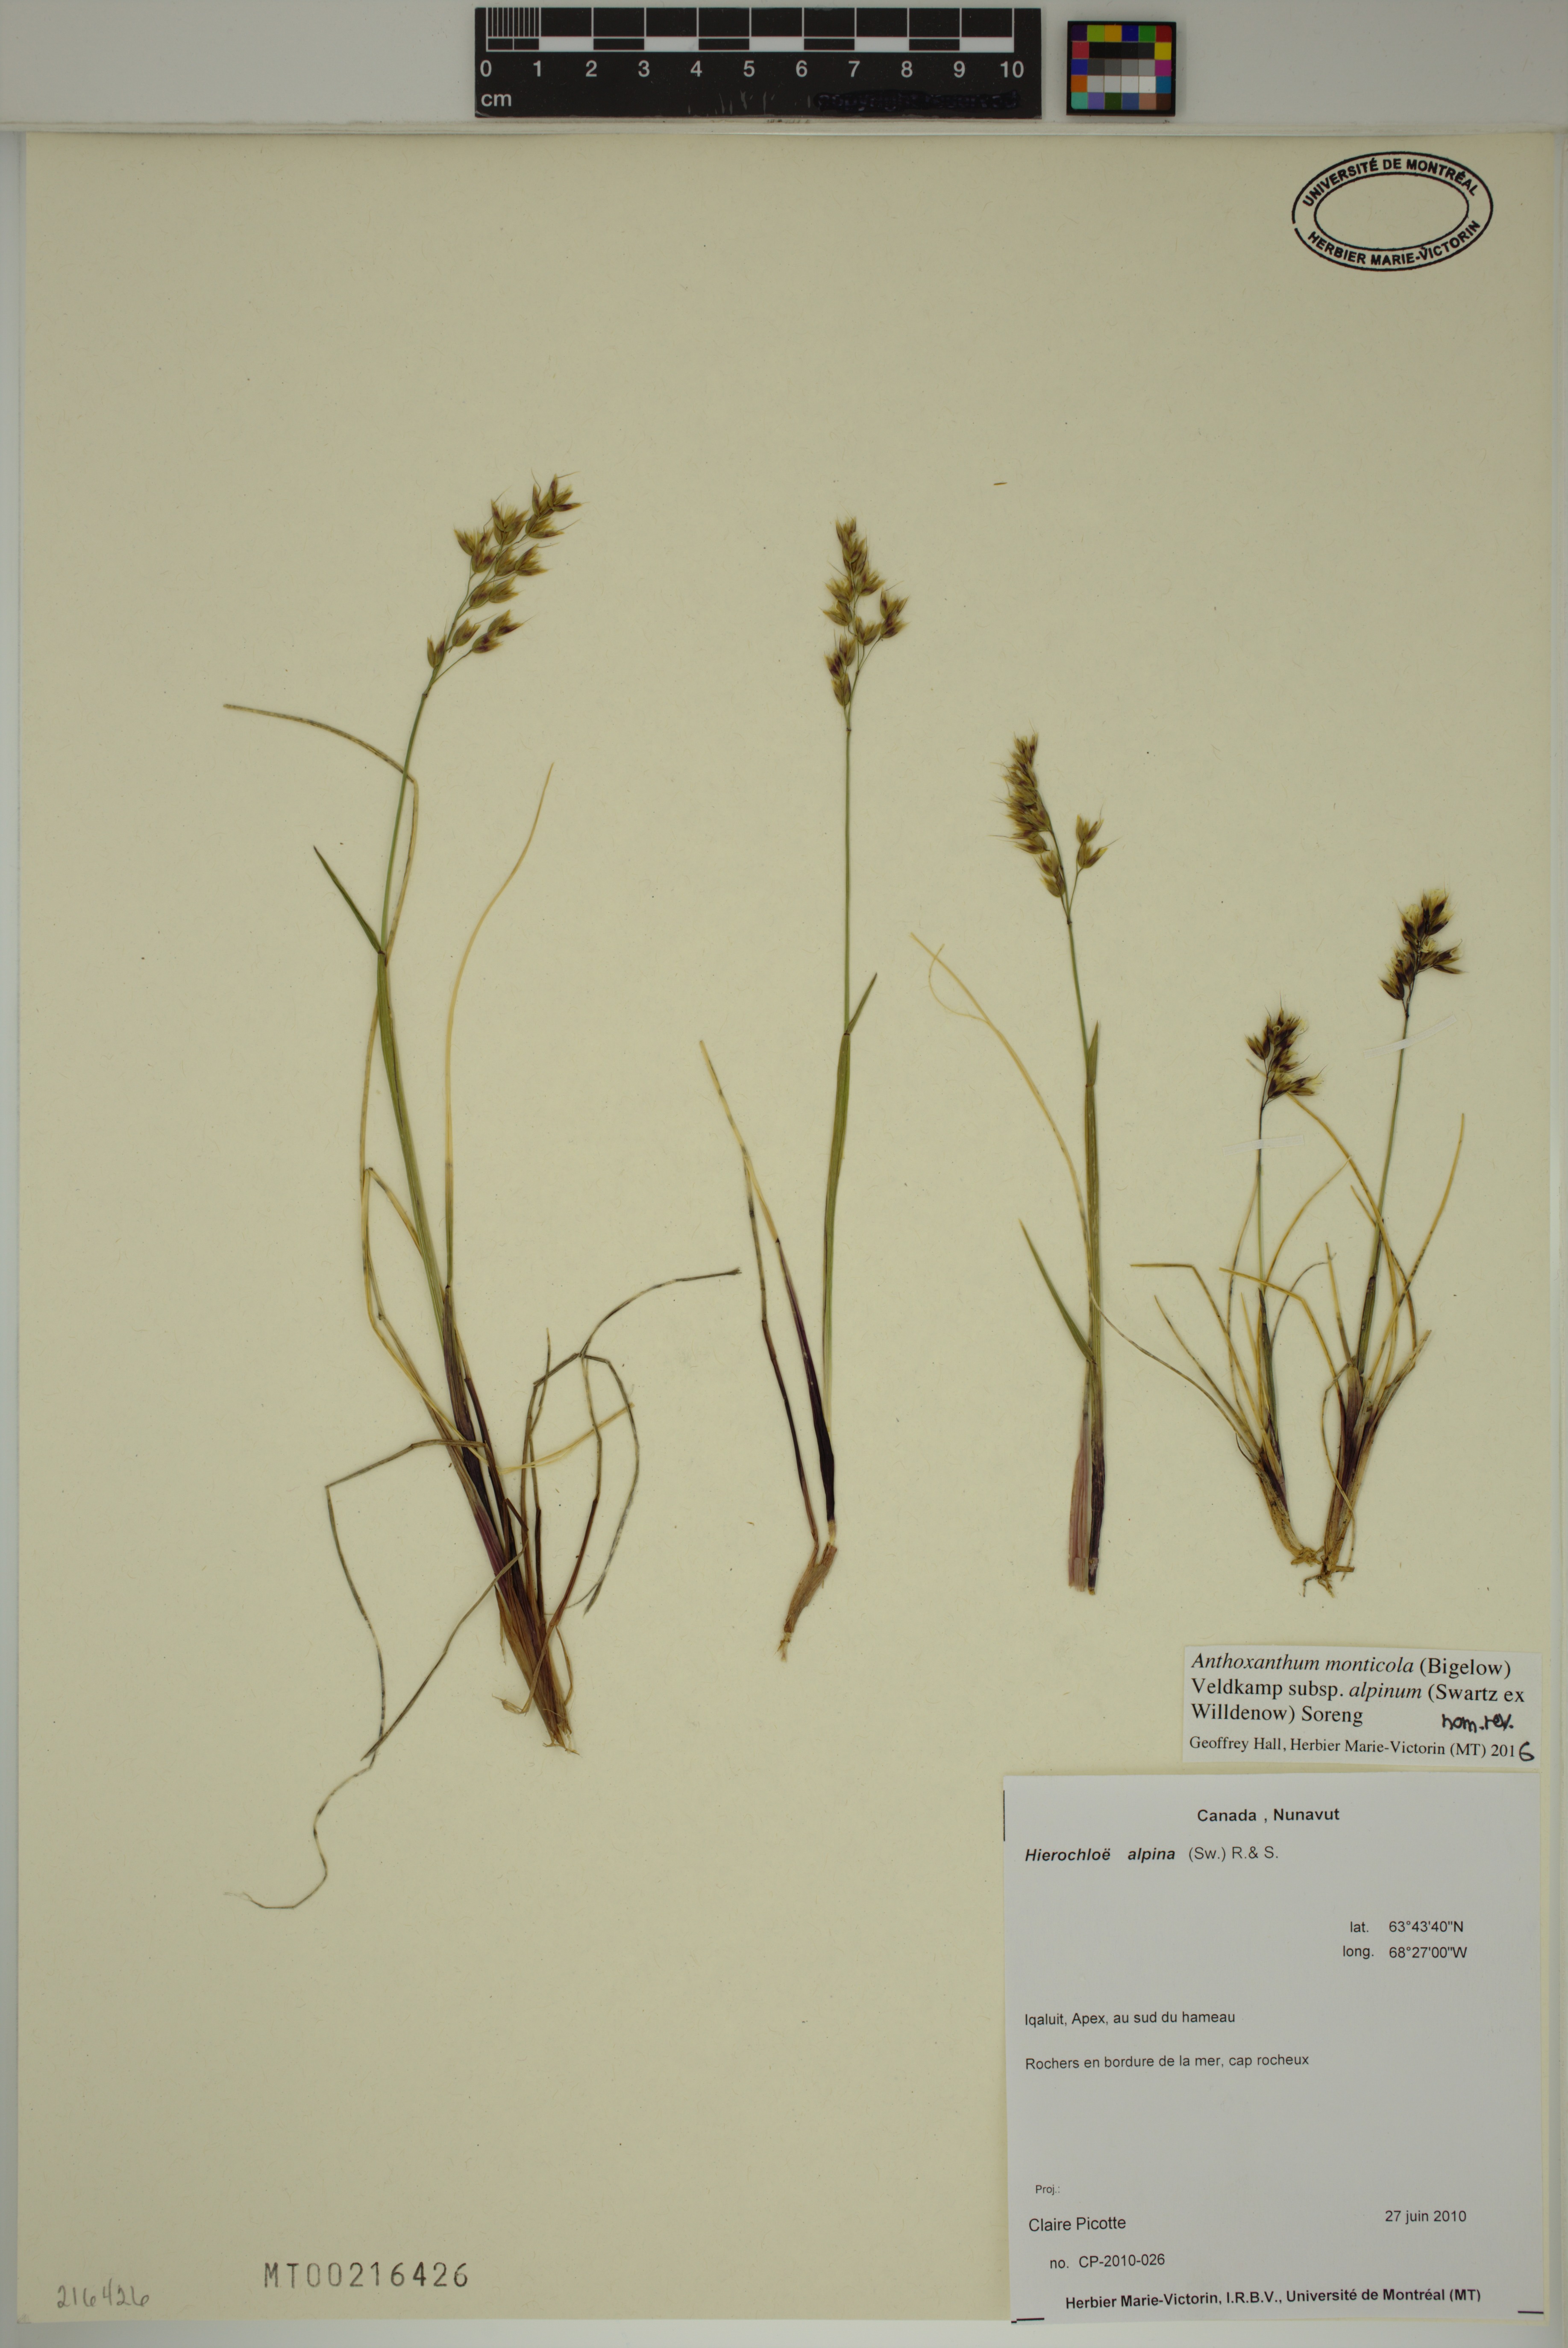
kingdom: Plantae
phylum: Tracheophyta
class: Liliopsida
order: Poales
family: Poaceae
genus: Anthoxanthum
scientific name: Anthoxanthum monticola
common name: Alpine sweetgrass
